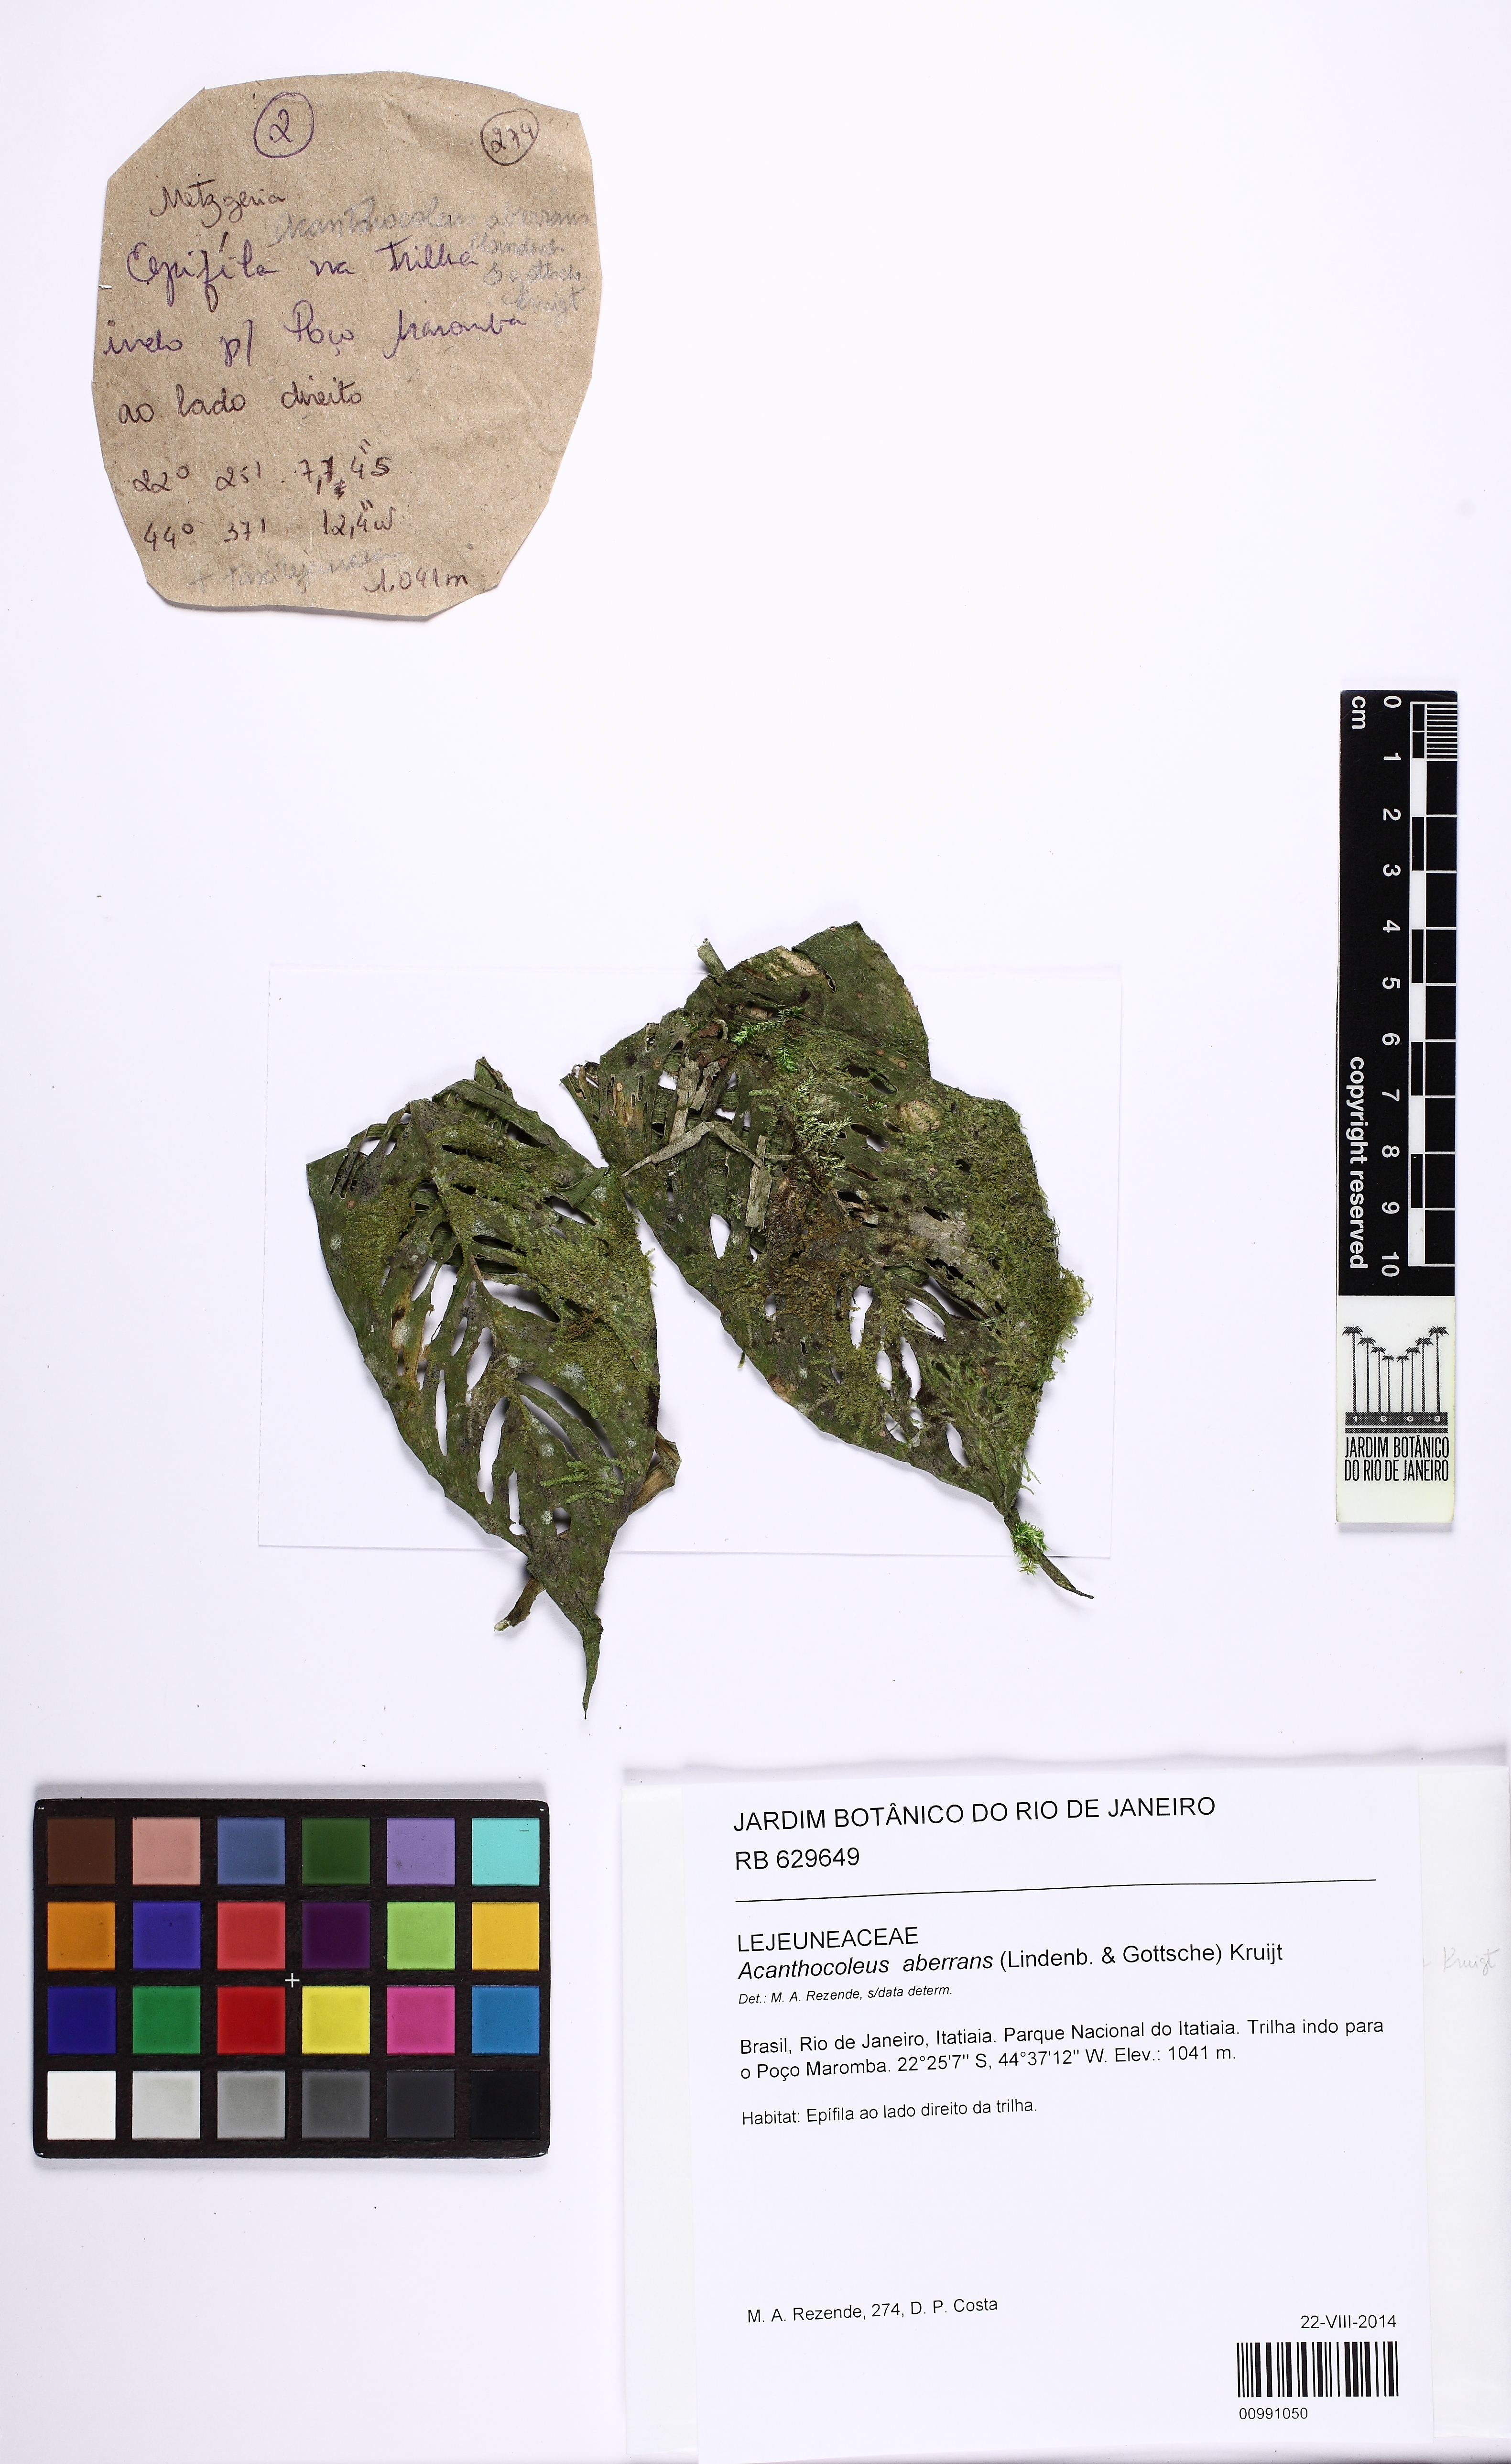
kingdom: Plantae
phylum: Marchantiophyta
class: Jungermanniopsida
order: Porellales
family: Lejeuneaceae
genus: Acanthocoleus
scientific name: Acanthocoleus aberrans
